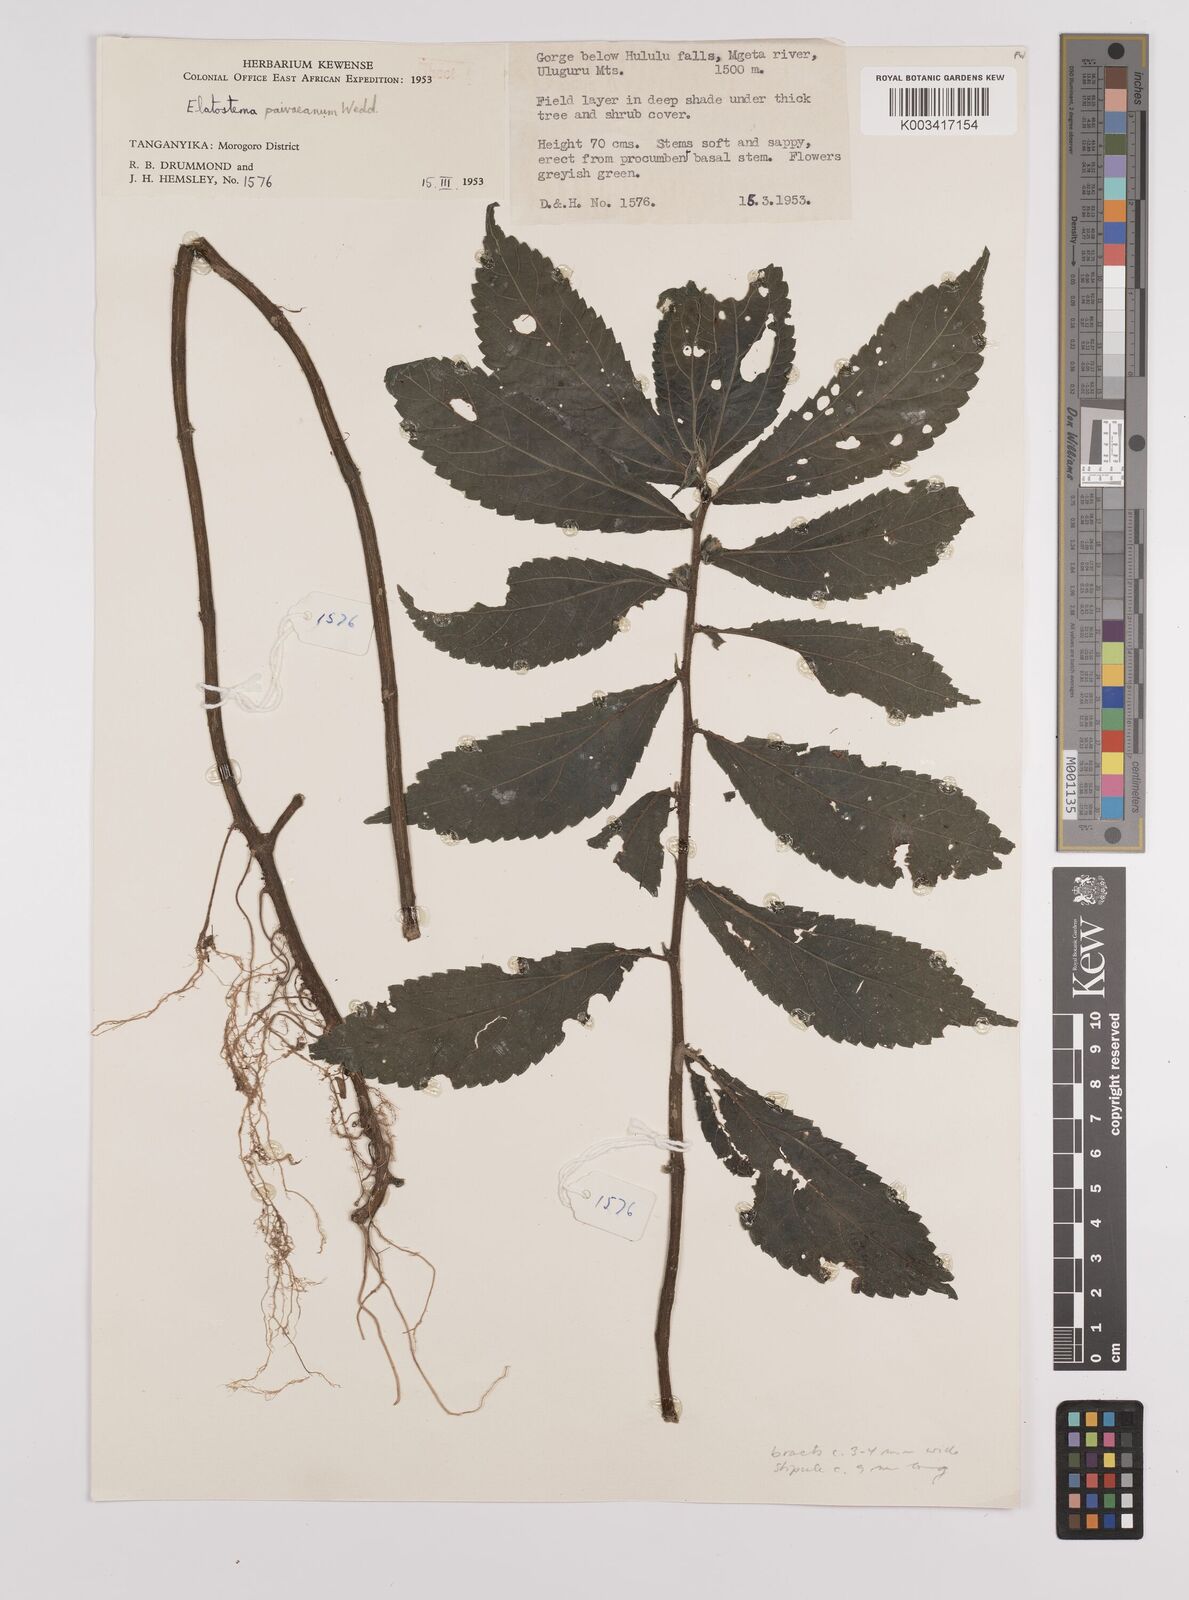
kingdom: Plantae
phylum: Tracheophyta
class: Magnoliopsida
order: Rosales
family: Urticaceae
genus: Elatostema
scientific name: Elatostema paivaeanum
